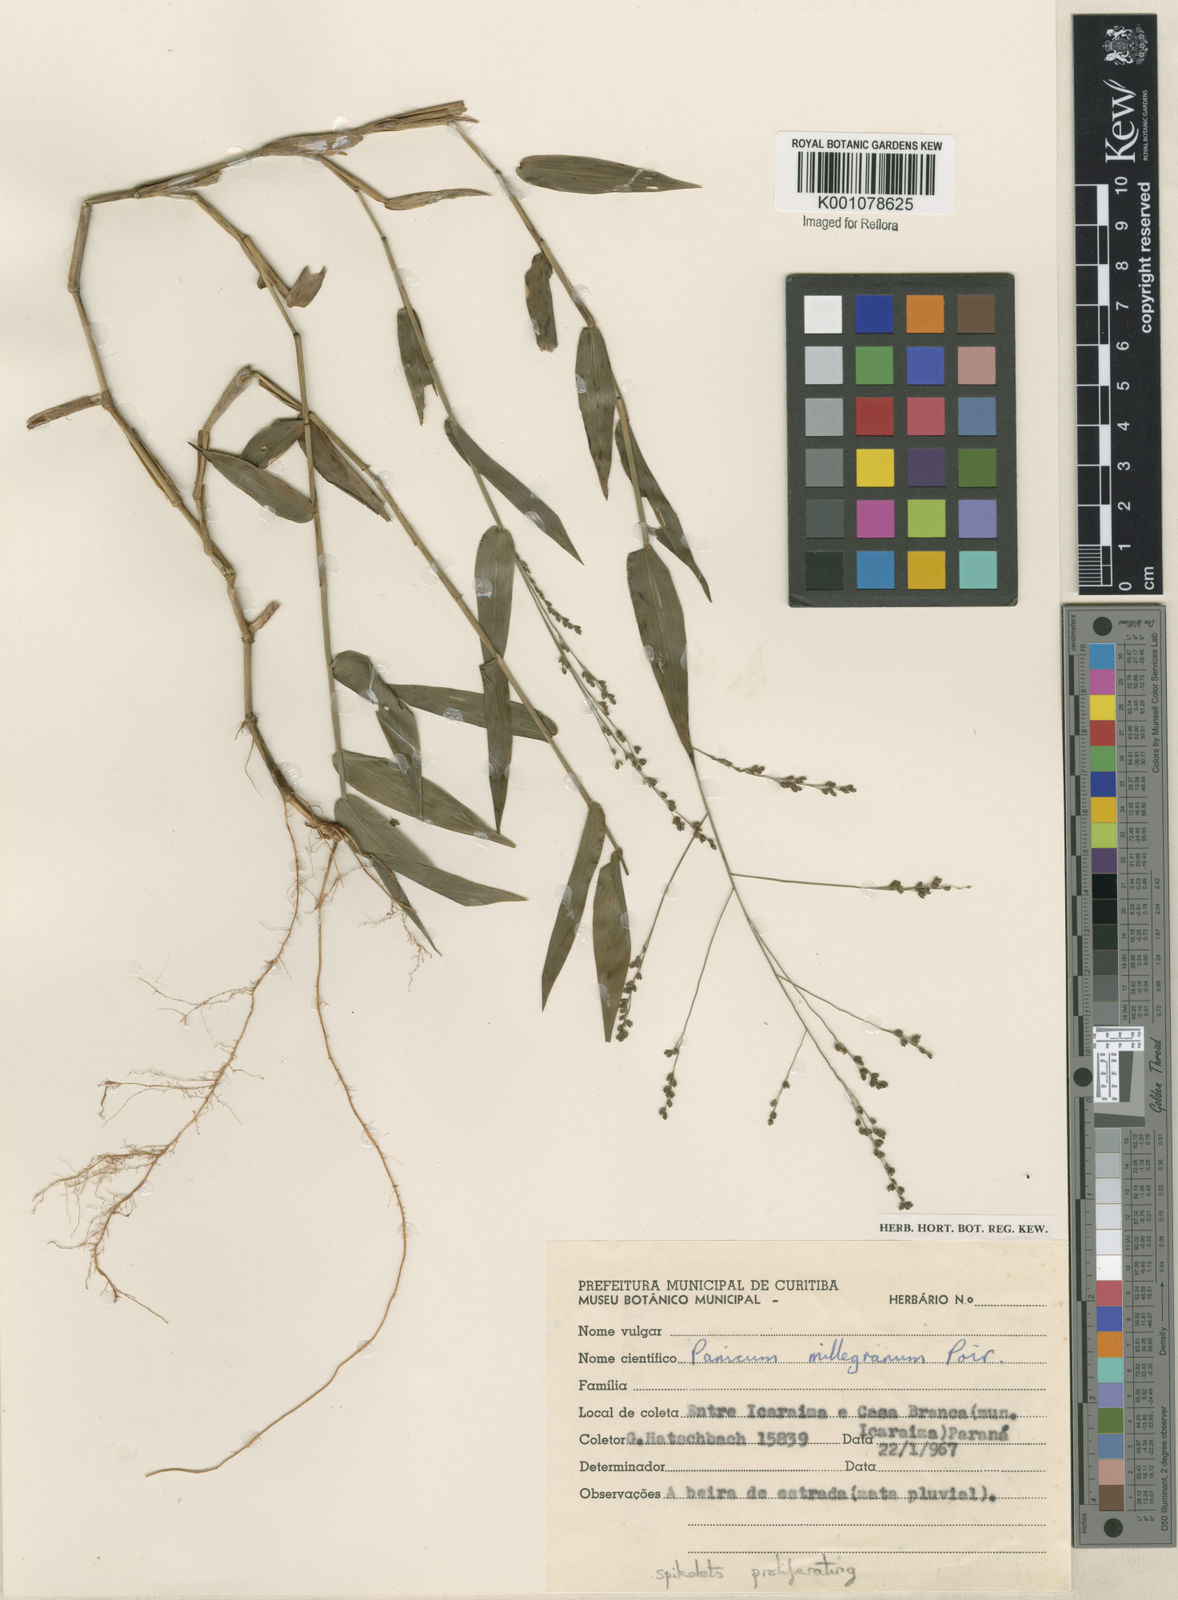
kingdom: Plantae
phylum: Tracheophyta
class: Liliopsida
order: Poales
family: Poaceae
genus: Panicum
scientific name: Panicum sellowii
